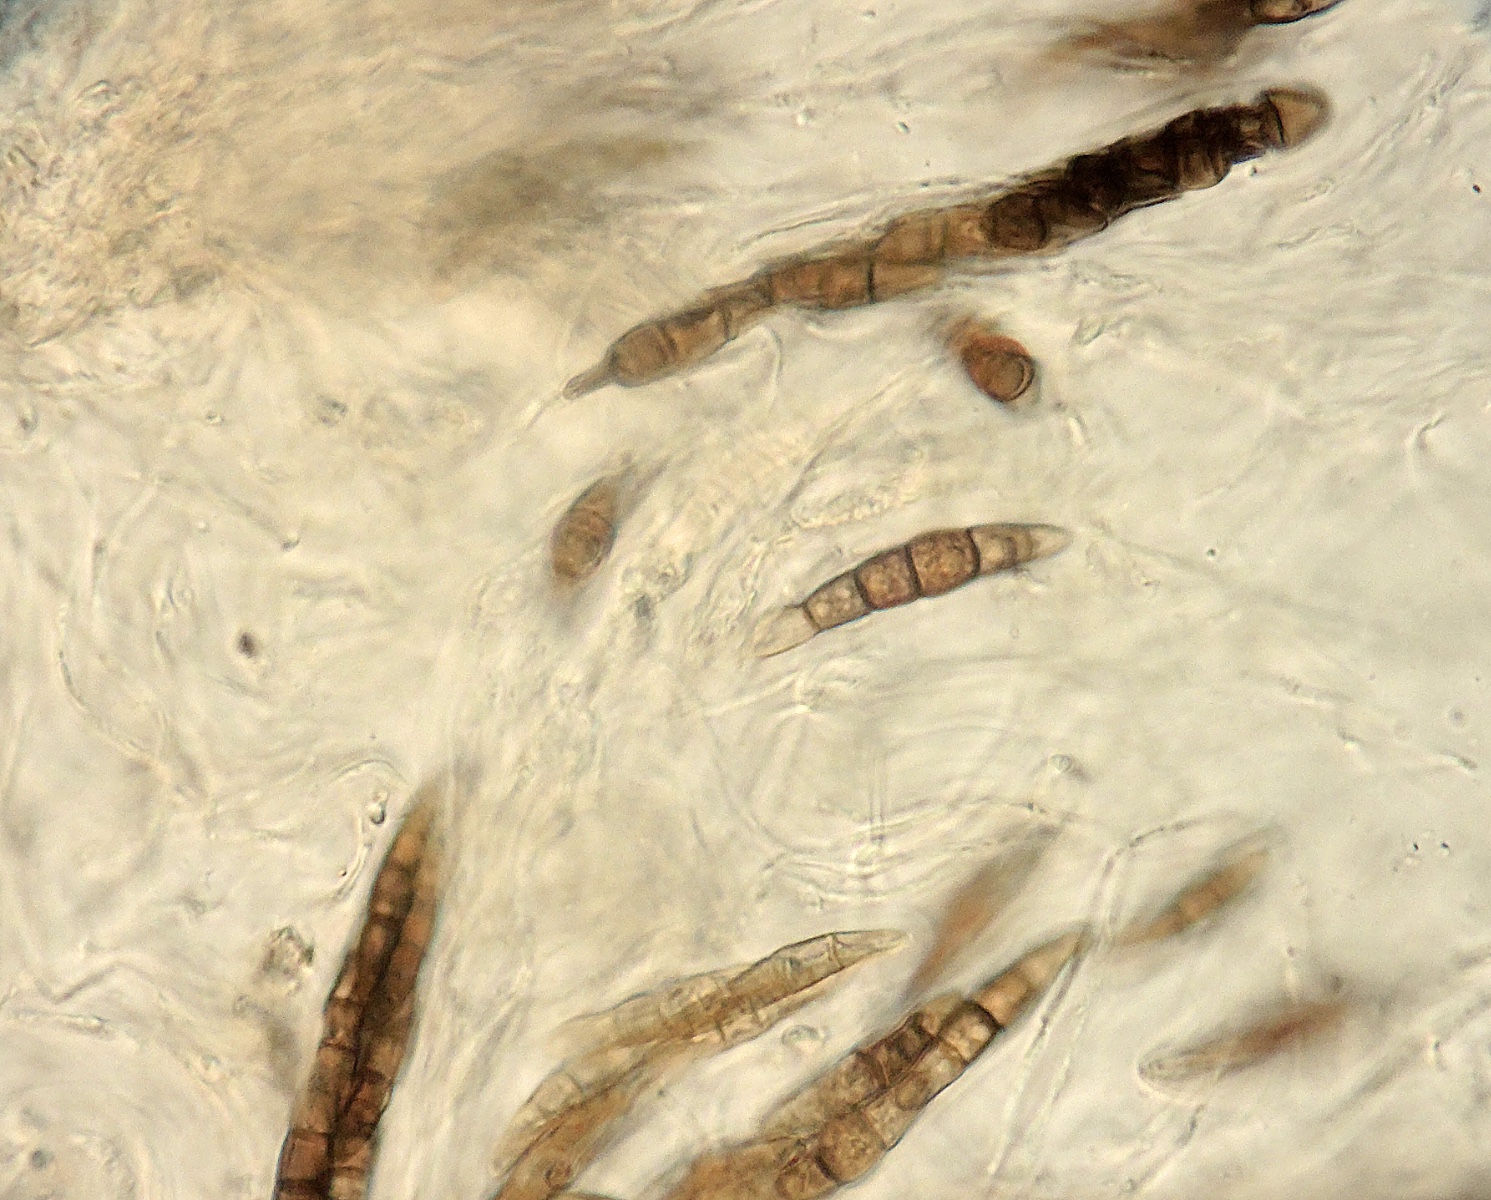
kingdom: Fungi
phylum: Ascomycota
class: Dothideomycetes
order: Pleosporales
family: Lophiostomataceae
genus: Sigarispora
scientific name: Sigarispora arundinis
